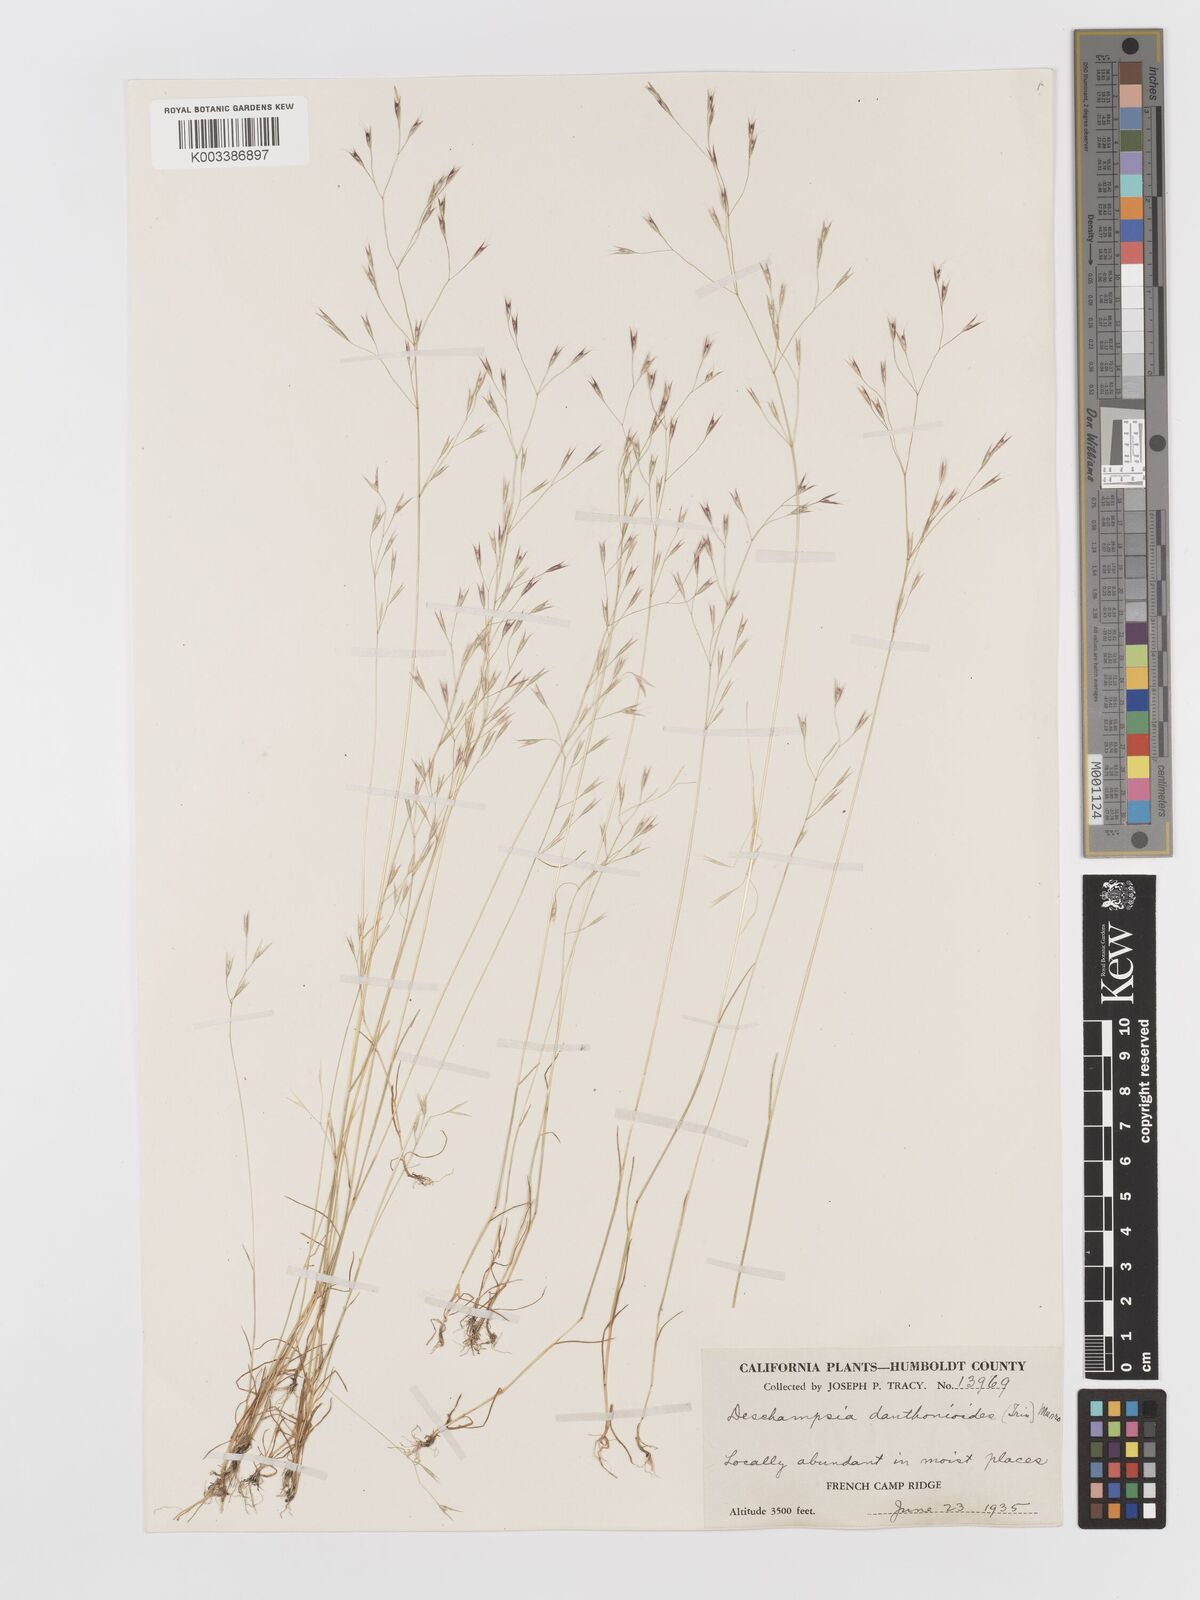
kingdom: Plantae
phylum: Tracheophyta
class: Liliopsida
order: Poales
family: Poaceae
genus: Deschampsia
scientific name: Deschampsia danthonioides
